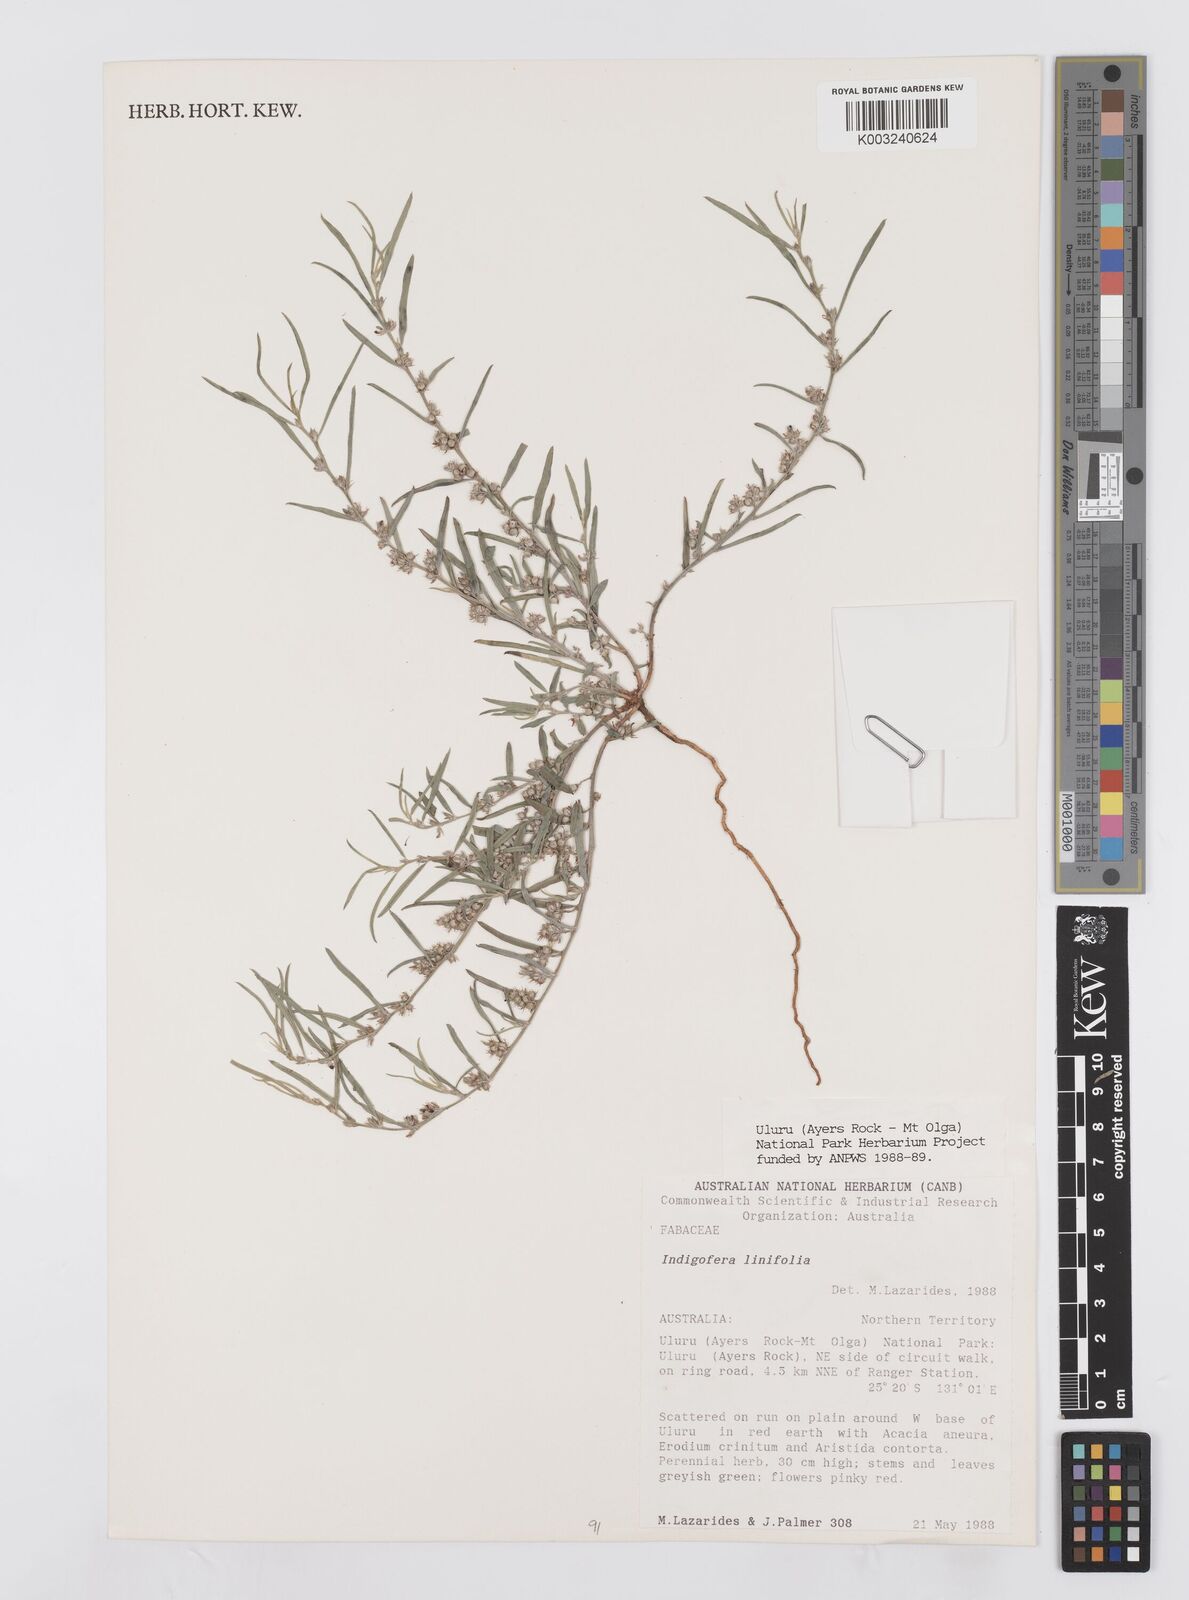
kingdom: Plantae
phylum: Tracheophyta
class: Magnoliopsida
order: Fabales
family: Fabaceae
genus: Indigofera
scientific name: Indigofera linifolia
